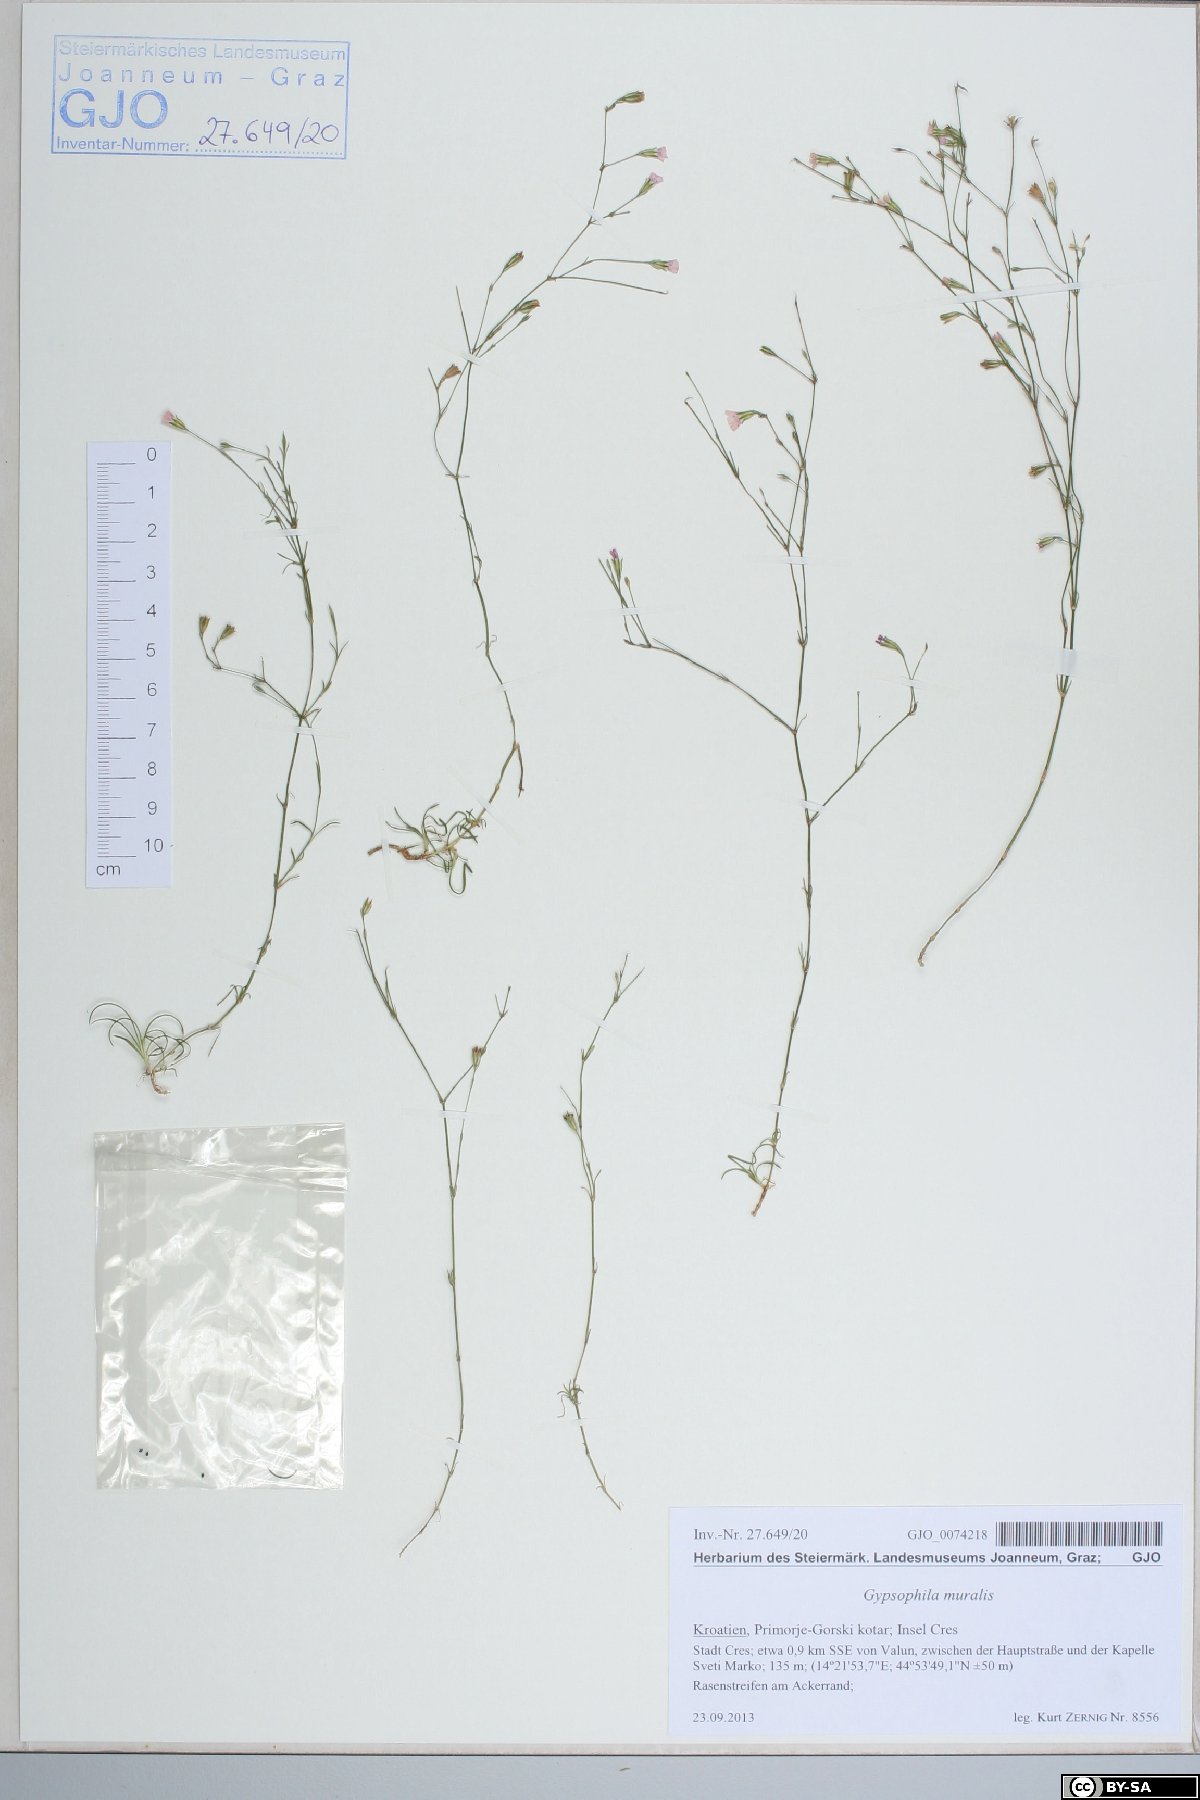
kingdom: Plantae
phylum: Tracheophyta
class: Magnoliopsida
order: Caryophyllales
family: Caryophyllaceae
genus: Petrorhagia
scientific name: Petrorhagia saxifraga
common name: Tunicflower
